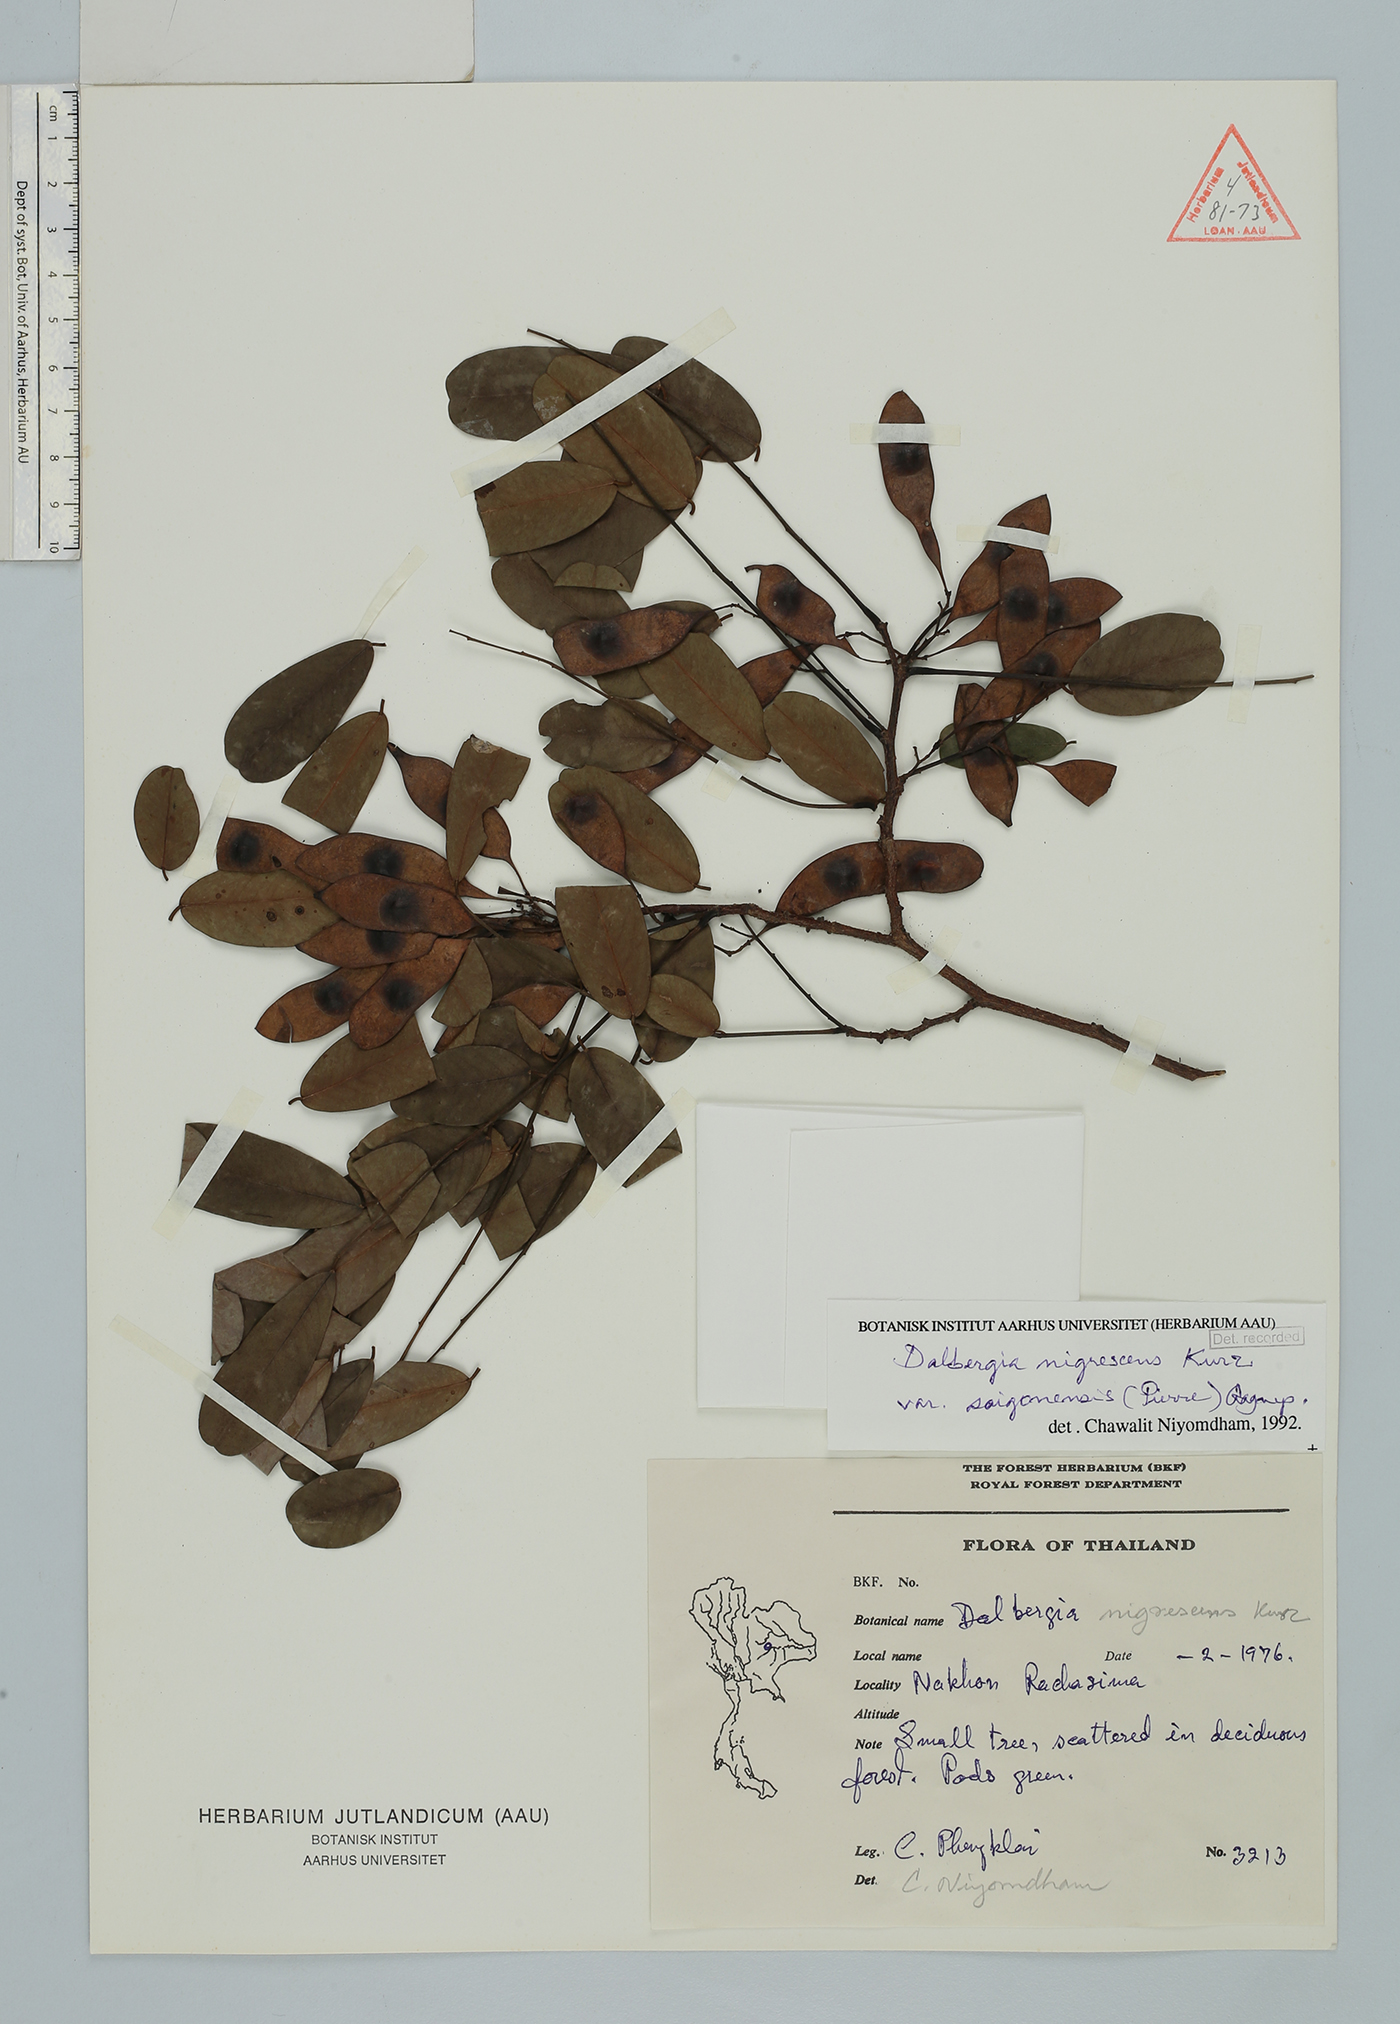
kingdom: Plantae
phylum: Tracheophyta
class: Magnoliopsida
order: Fabales
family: Fabaceae
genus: Dalbergia
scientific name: Dalbergia nigrescens
